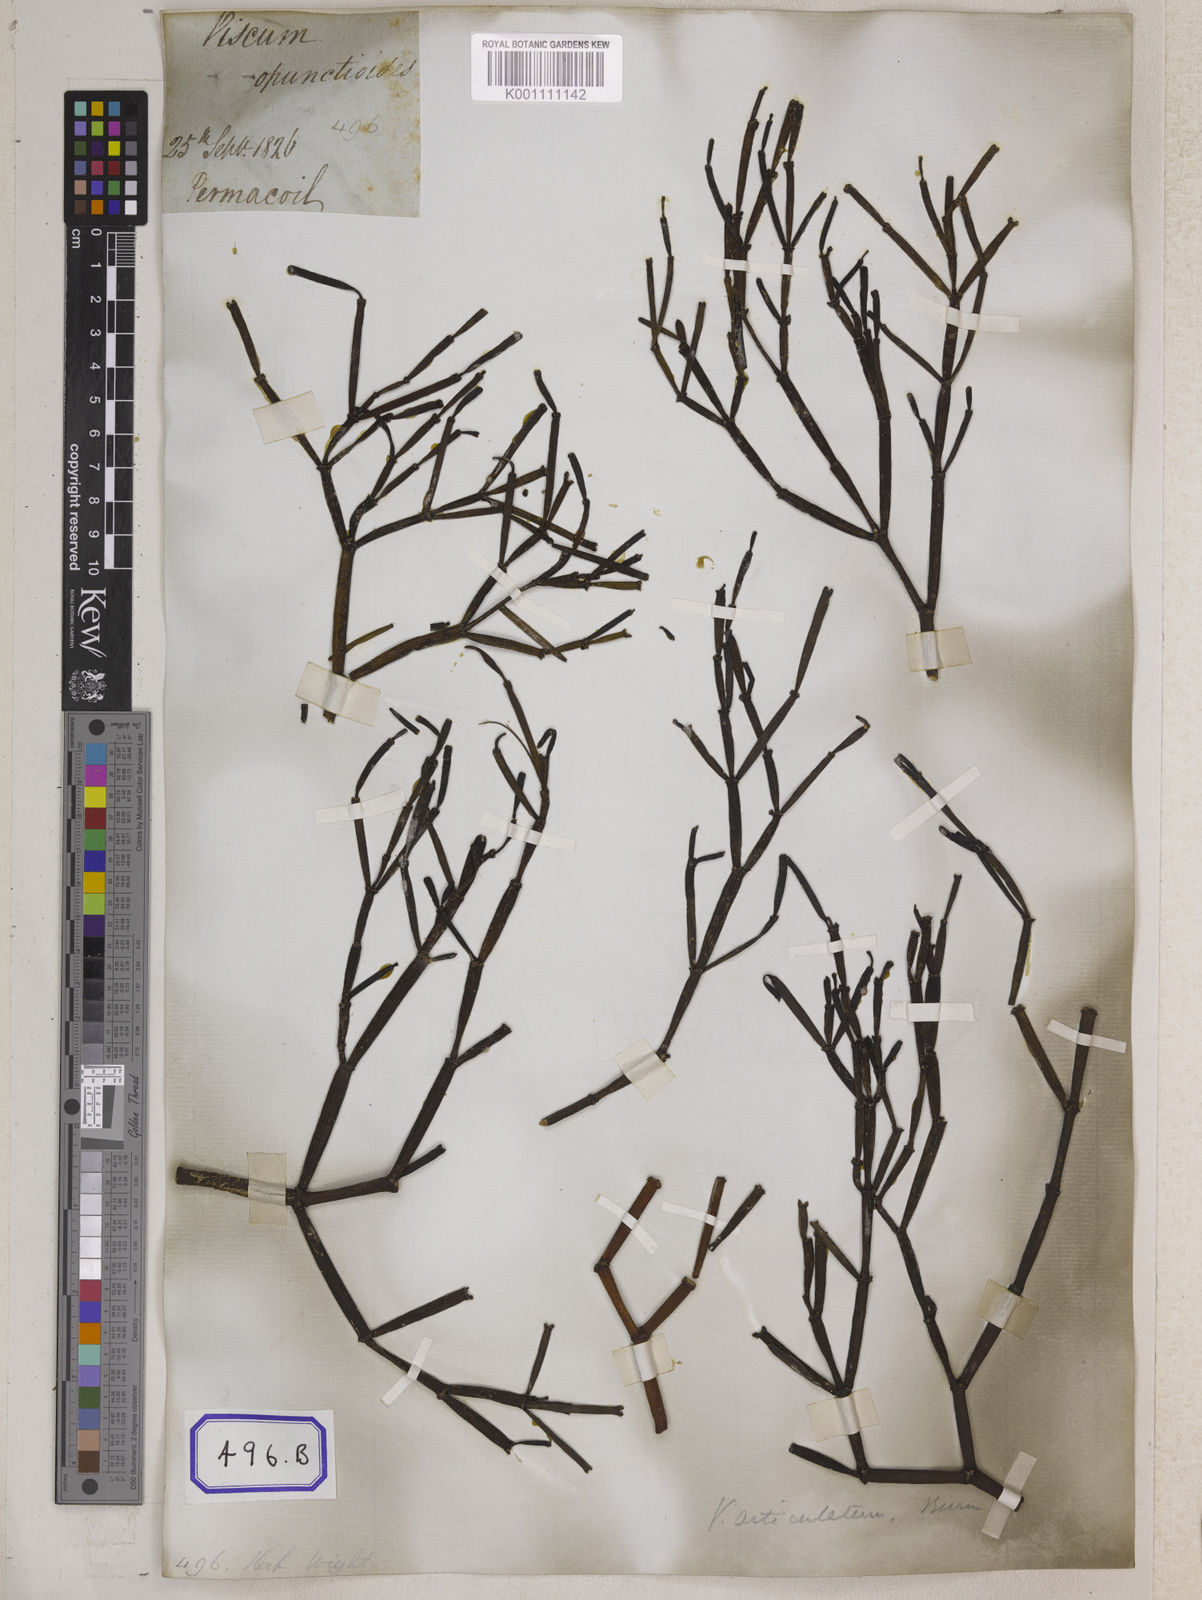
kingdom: Plantae
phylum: Tracheophyta
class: Magnoliopsida
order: Santalales
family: Viscaceae
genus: Dendrophthora
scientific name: Dendrophthora opuntioides
